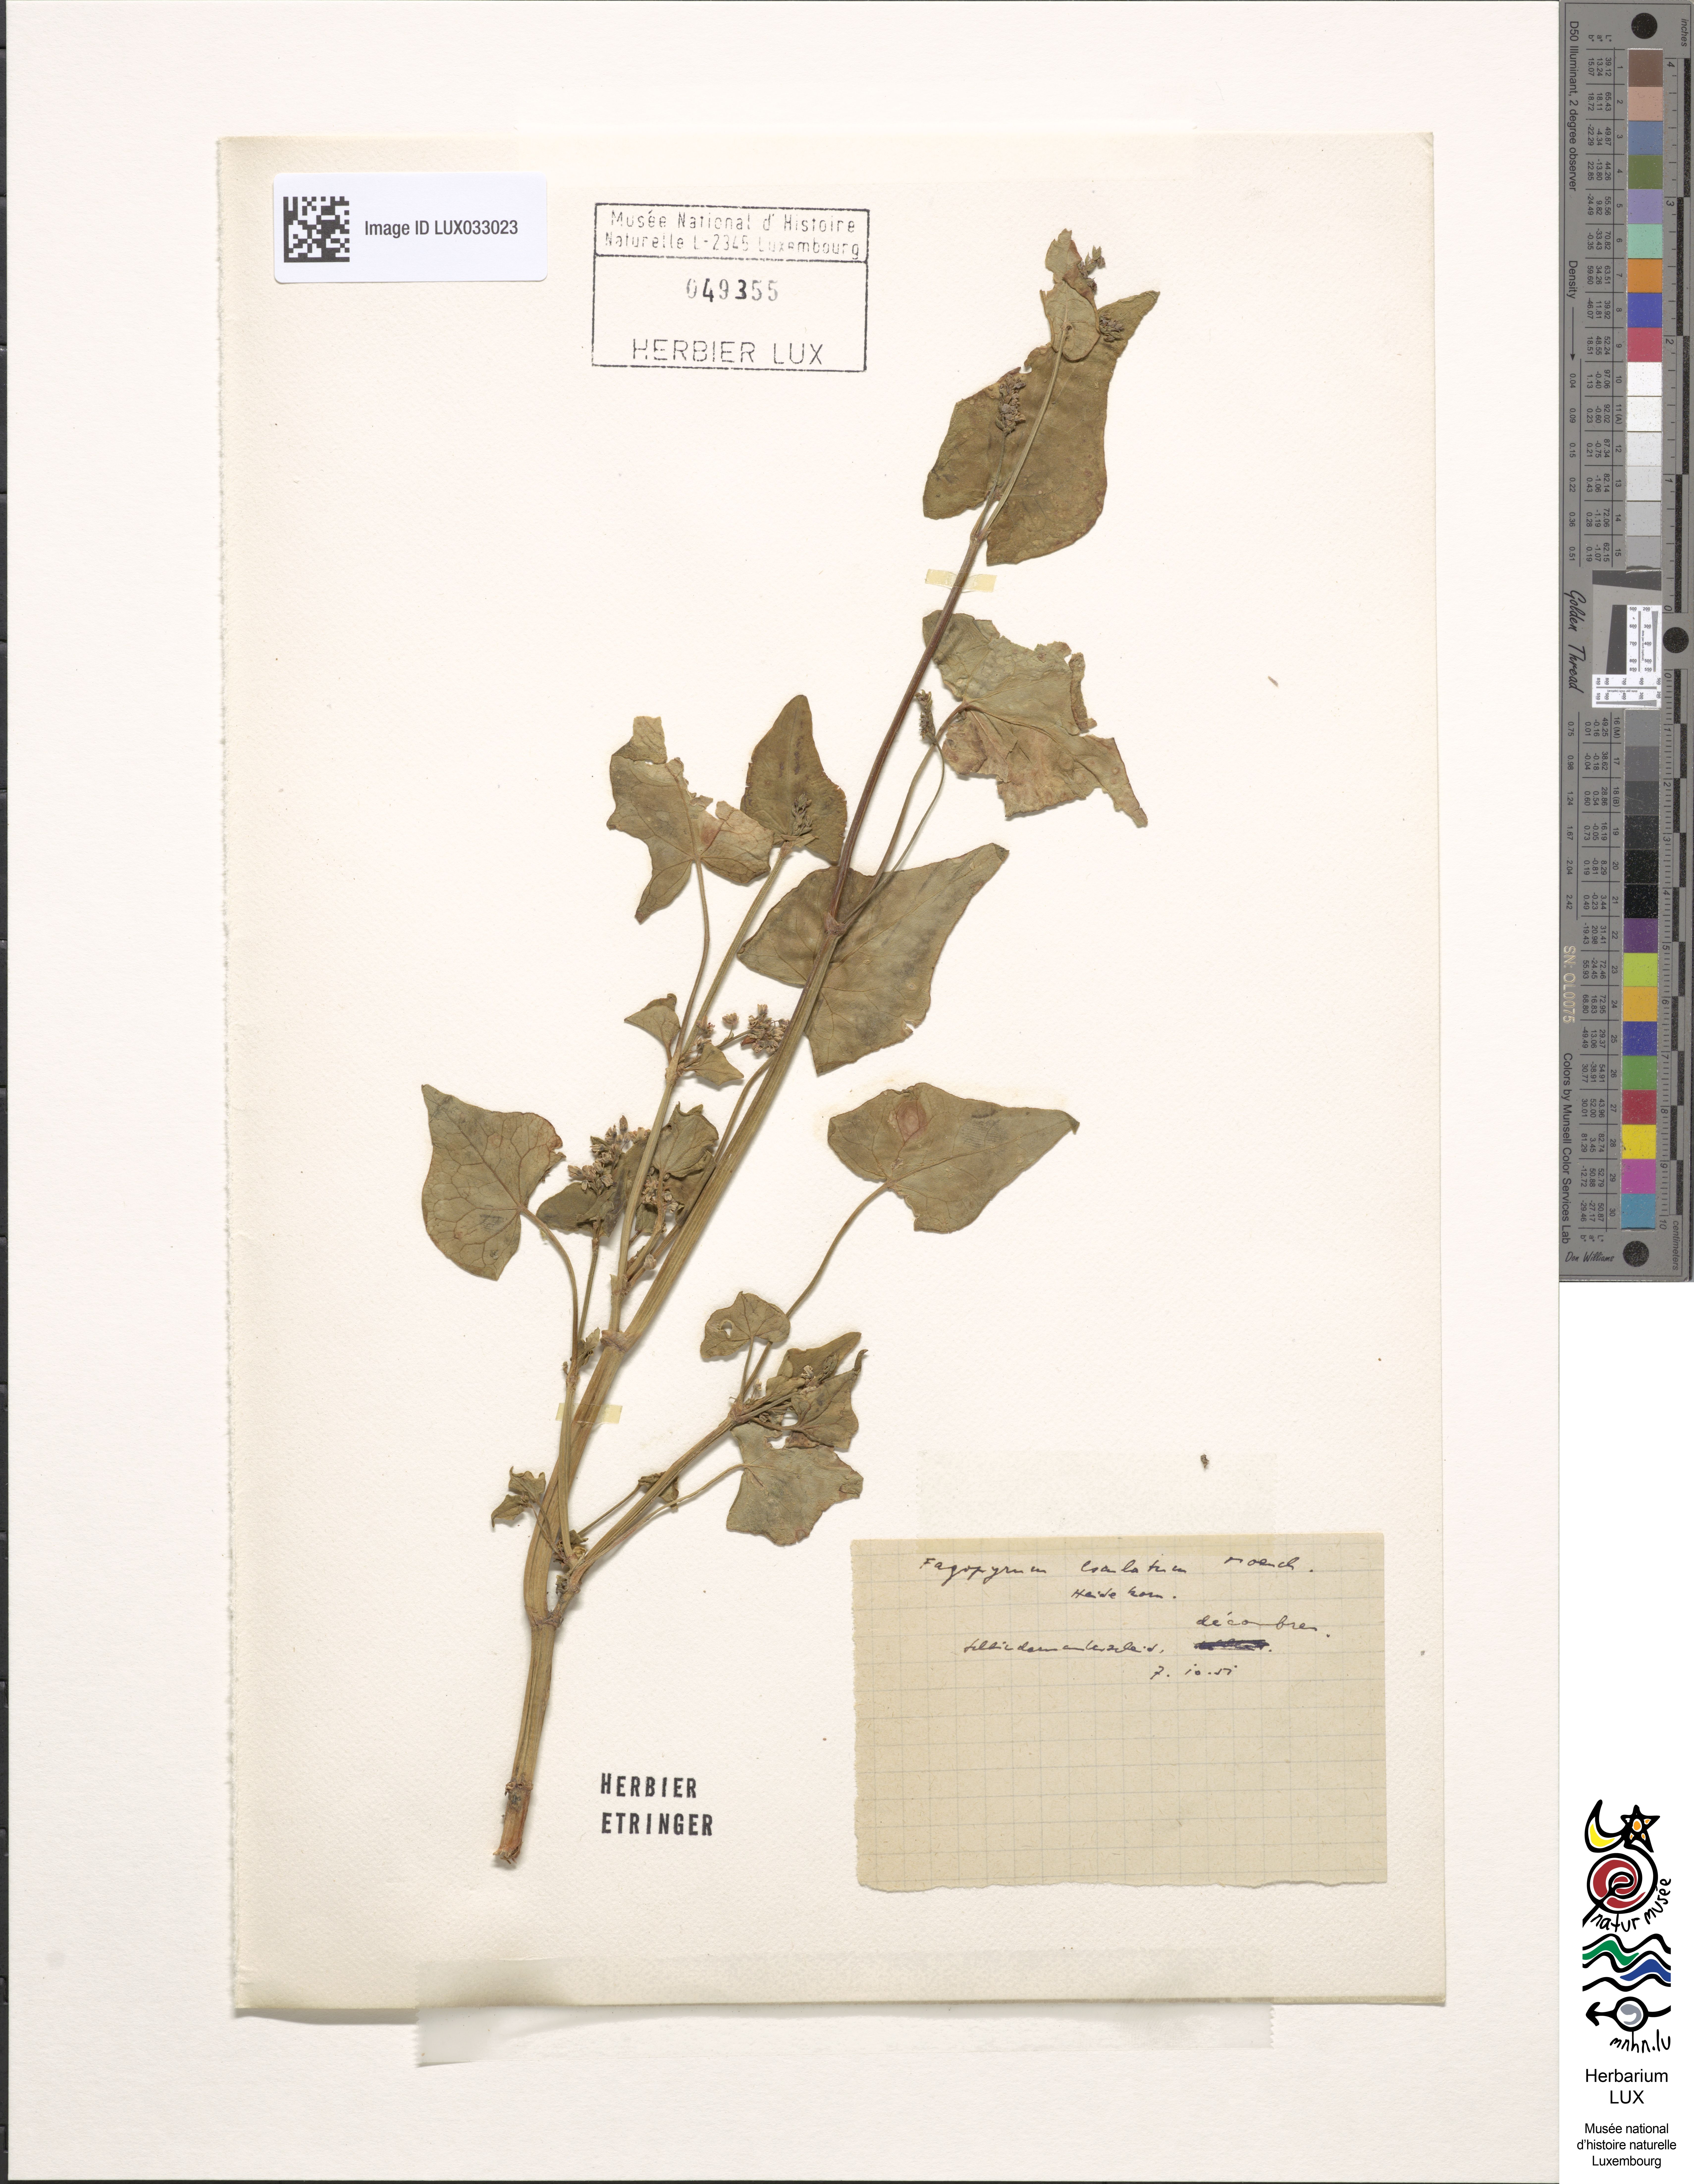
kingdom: Plantae
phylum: Tracheophyta
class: Magnoliopsida
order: Caryophyllales
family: Polygonaceae
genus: Fagopyrum
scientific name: Fagopyrum esculentum
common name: Buckwheat
